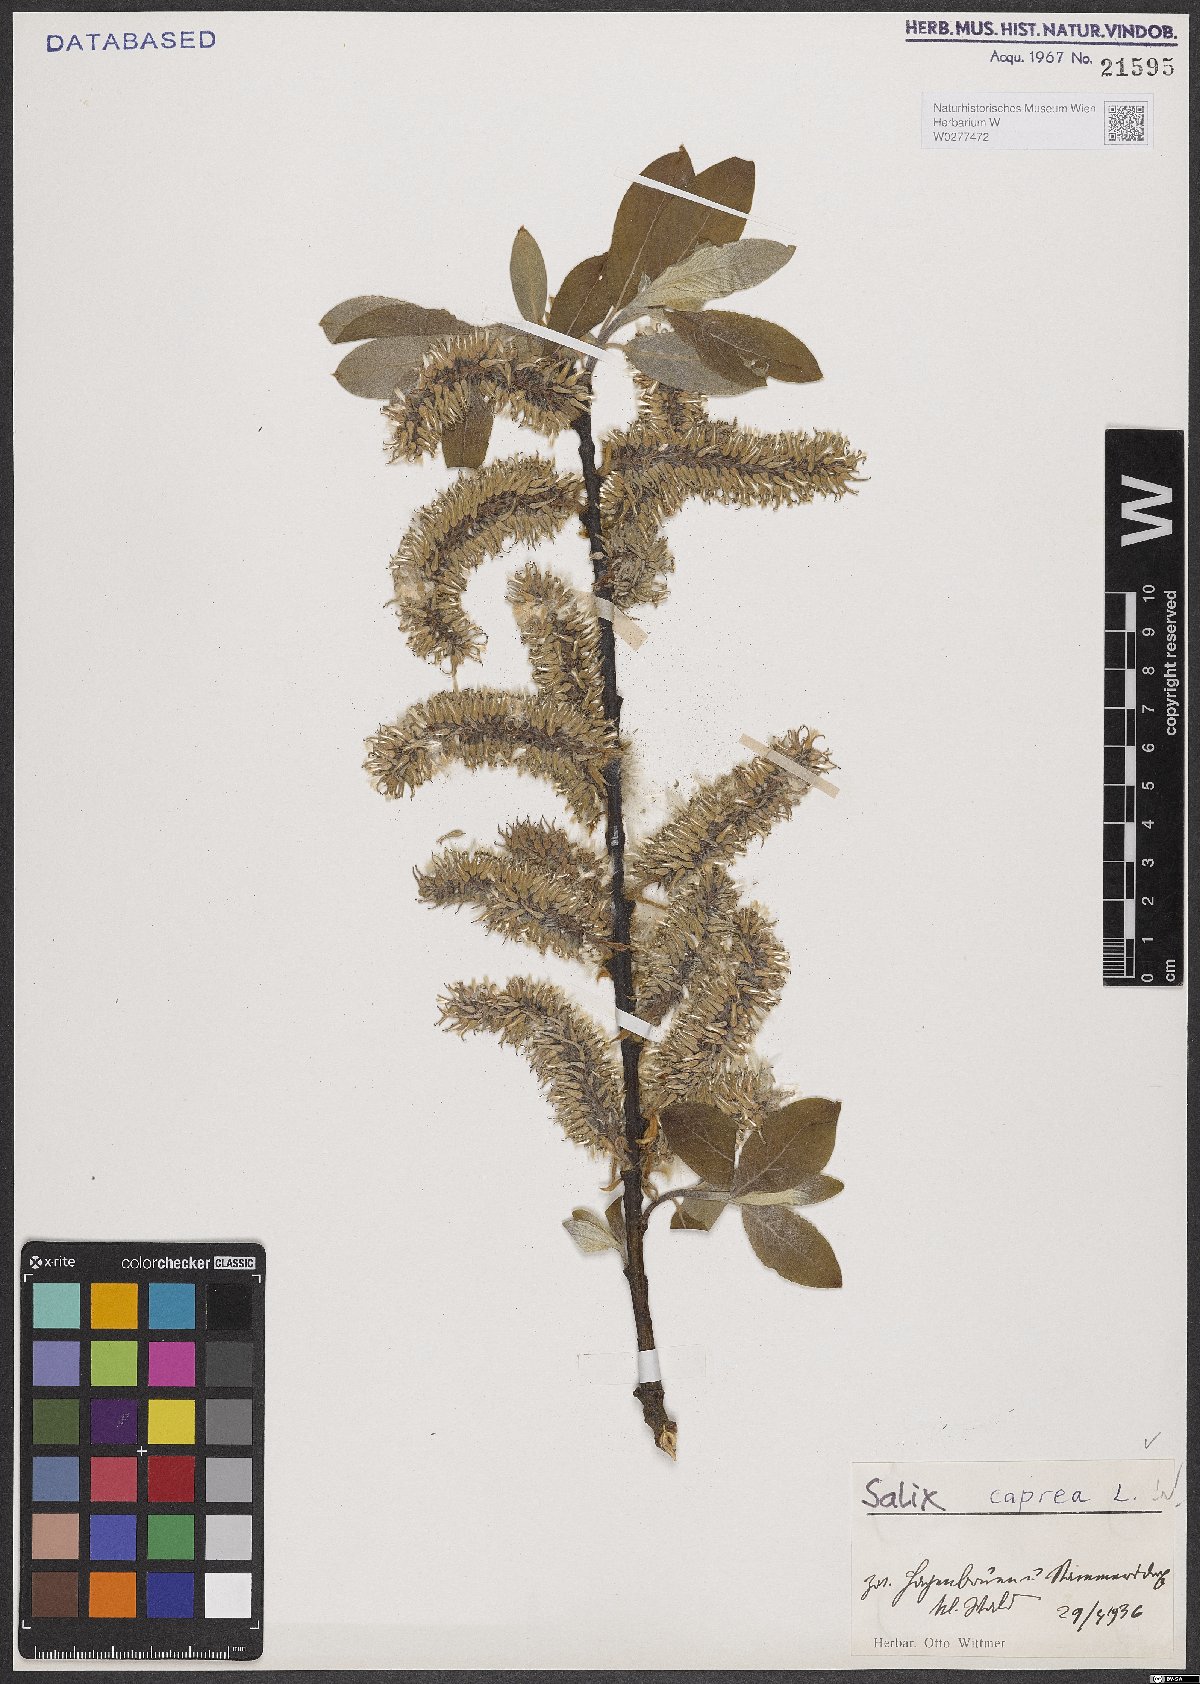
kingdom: Plantae
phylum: Tracheophyta
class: Magnoliopsida
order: Malpighiales
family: Salicaceae
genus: Salix
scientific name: Salix caprea
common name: Goat willow
